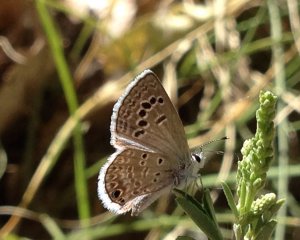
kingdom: Animalia
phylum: Arthropoda
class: Insecta
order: Lepidoptera
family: Lycaenidae
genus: Echinargus
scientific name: Echinargus isola
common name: Reakirt's Blue
